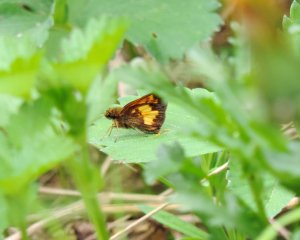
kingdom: Animalia
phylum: Arthropoda
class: Insecta
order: Lepidoptera
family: Hesperiidae
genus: Lon
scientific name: Lon hobomok
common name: Hobomok Skipper
